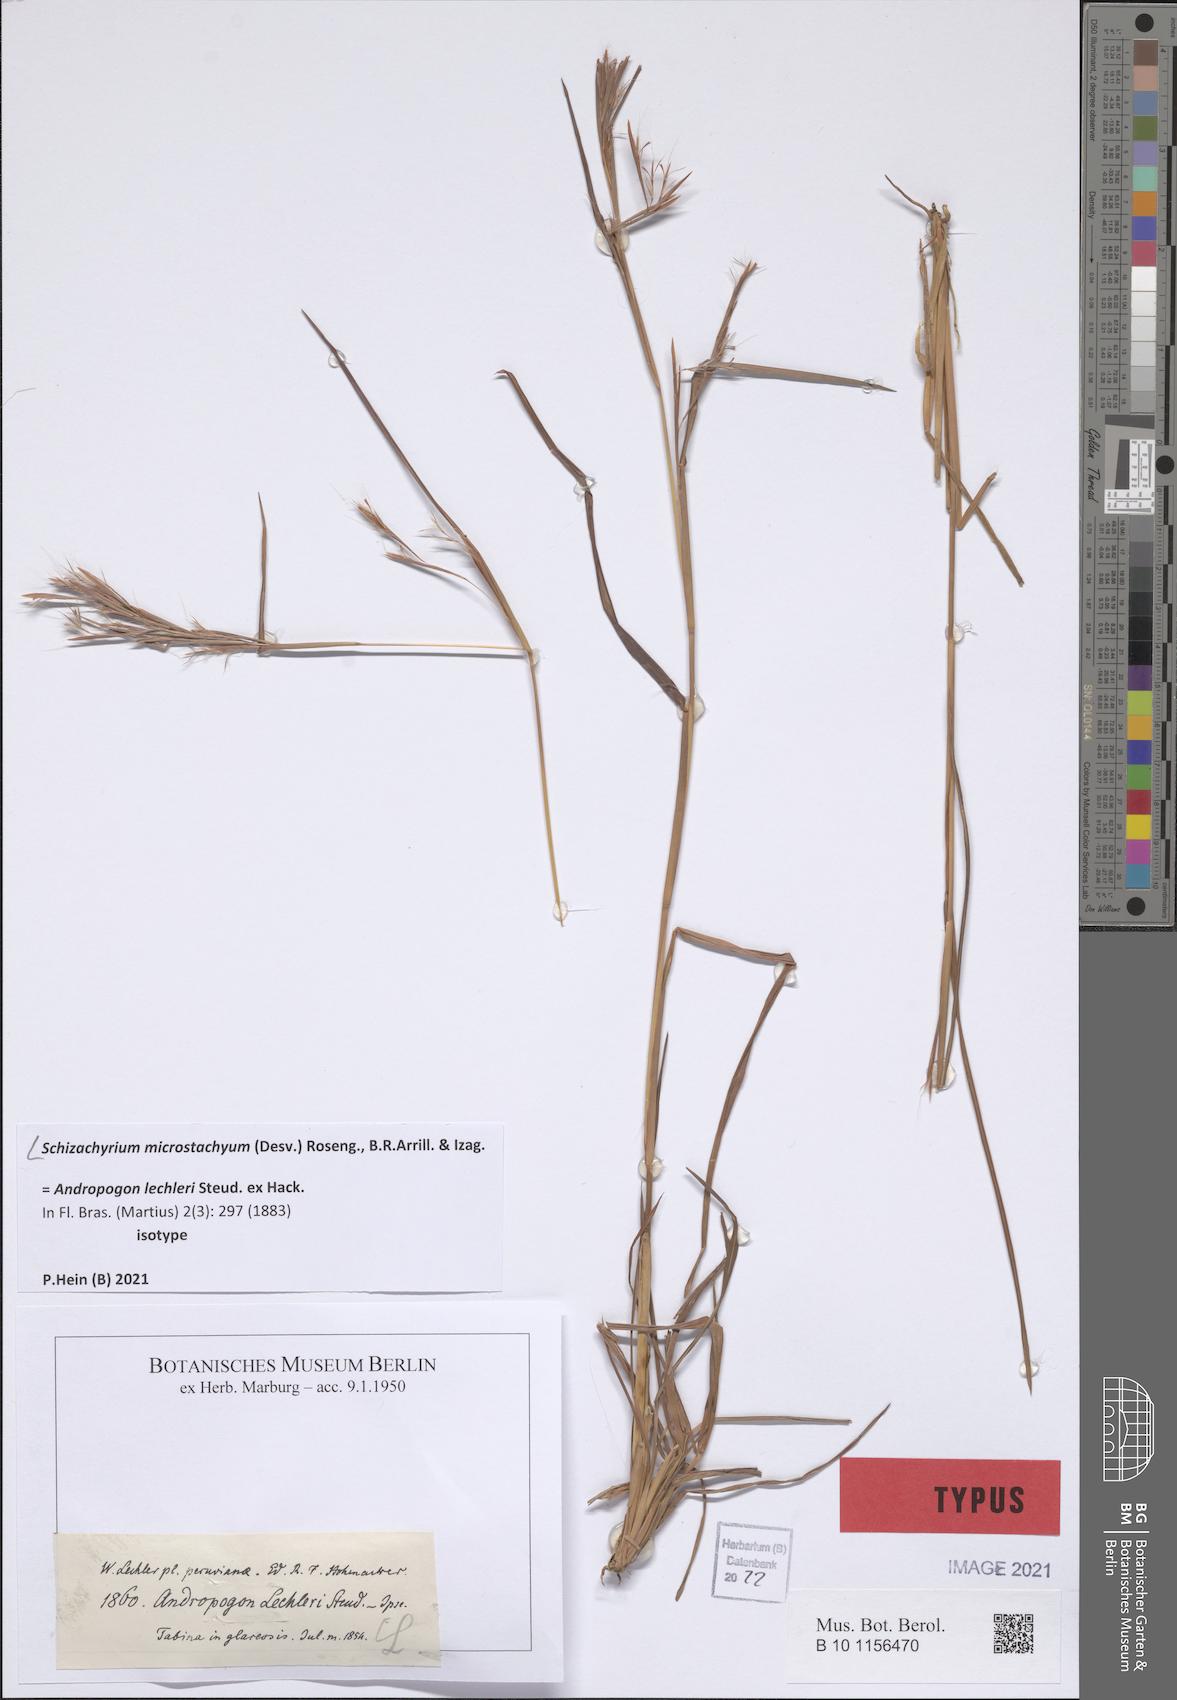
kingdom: Plantae
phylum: Tracheophyta
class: Liliopsida
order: Poales
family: Poaceae
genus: Schizachyrium
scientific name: Schizachyrium microstachyum
